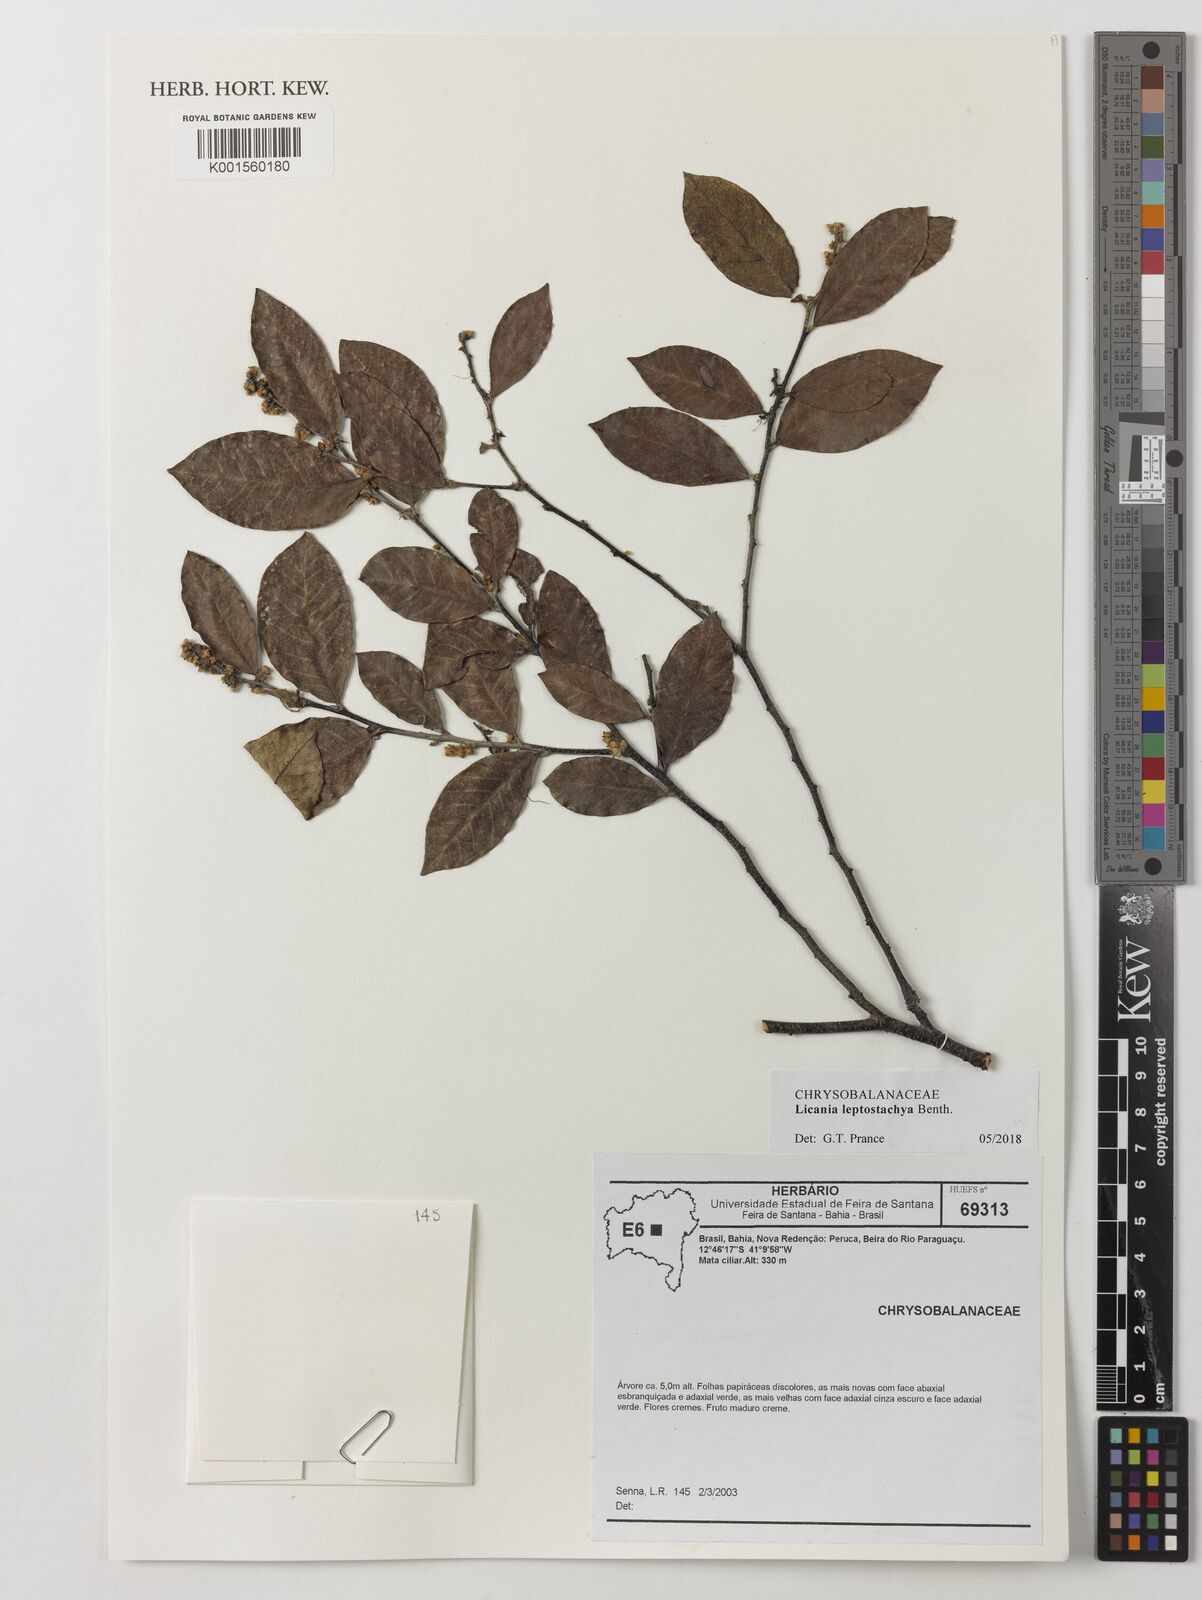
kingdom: Plantae
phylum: Tracheophyta
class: Magnoliopsida
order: Malpighiales
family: Chrysobalanaceae
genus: Licania
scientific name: Licania leptostachya
